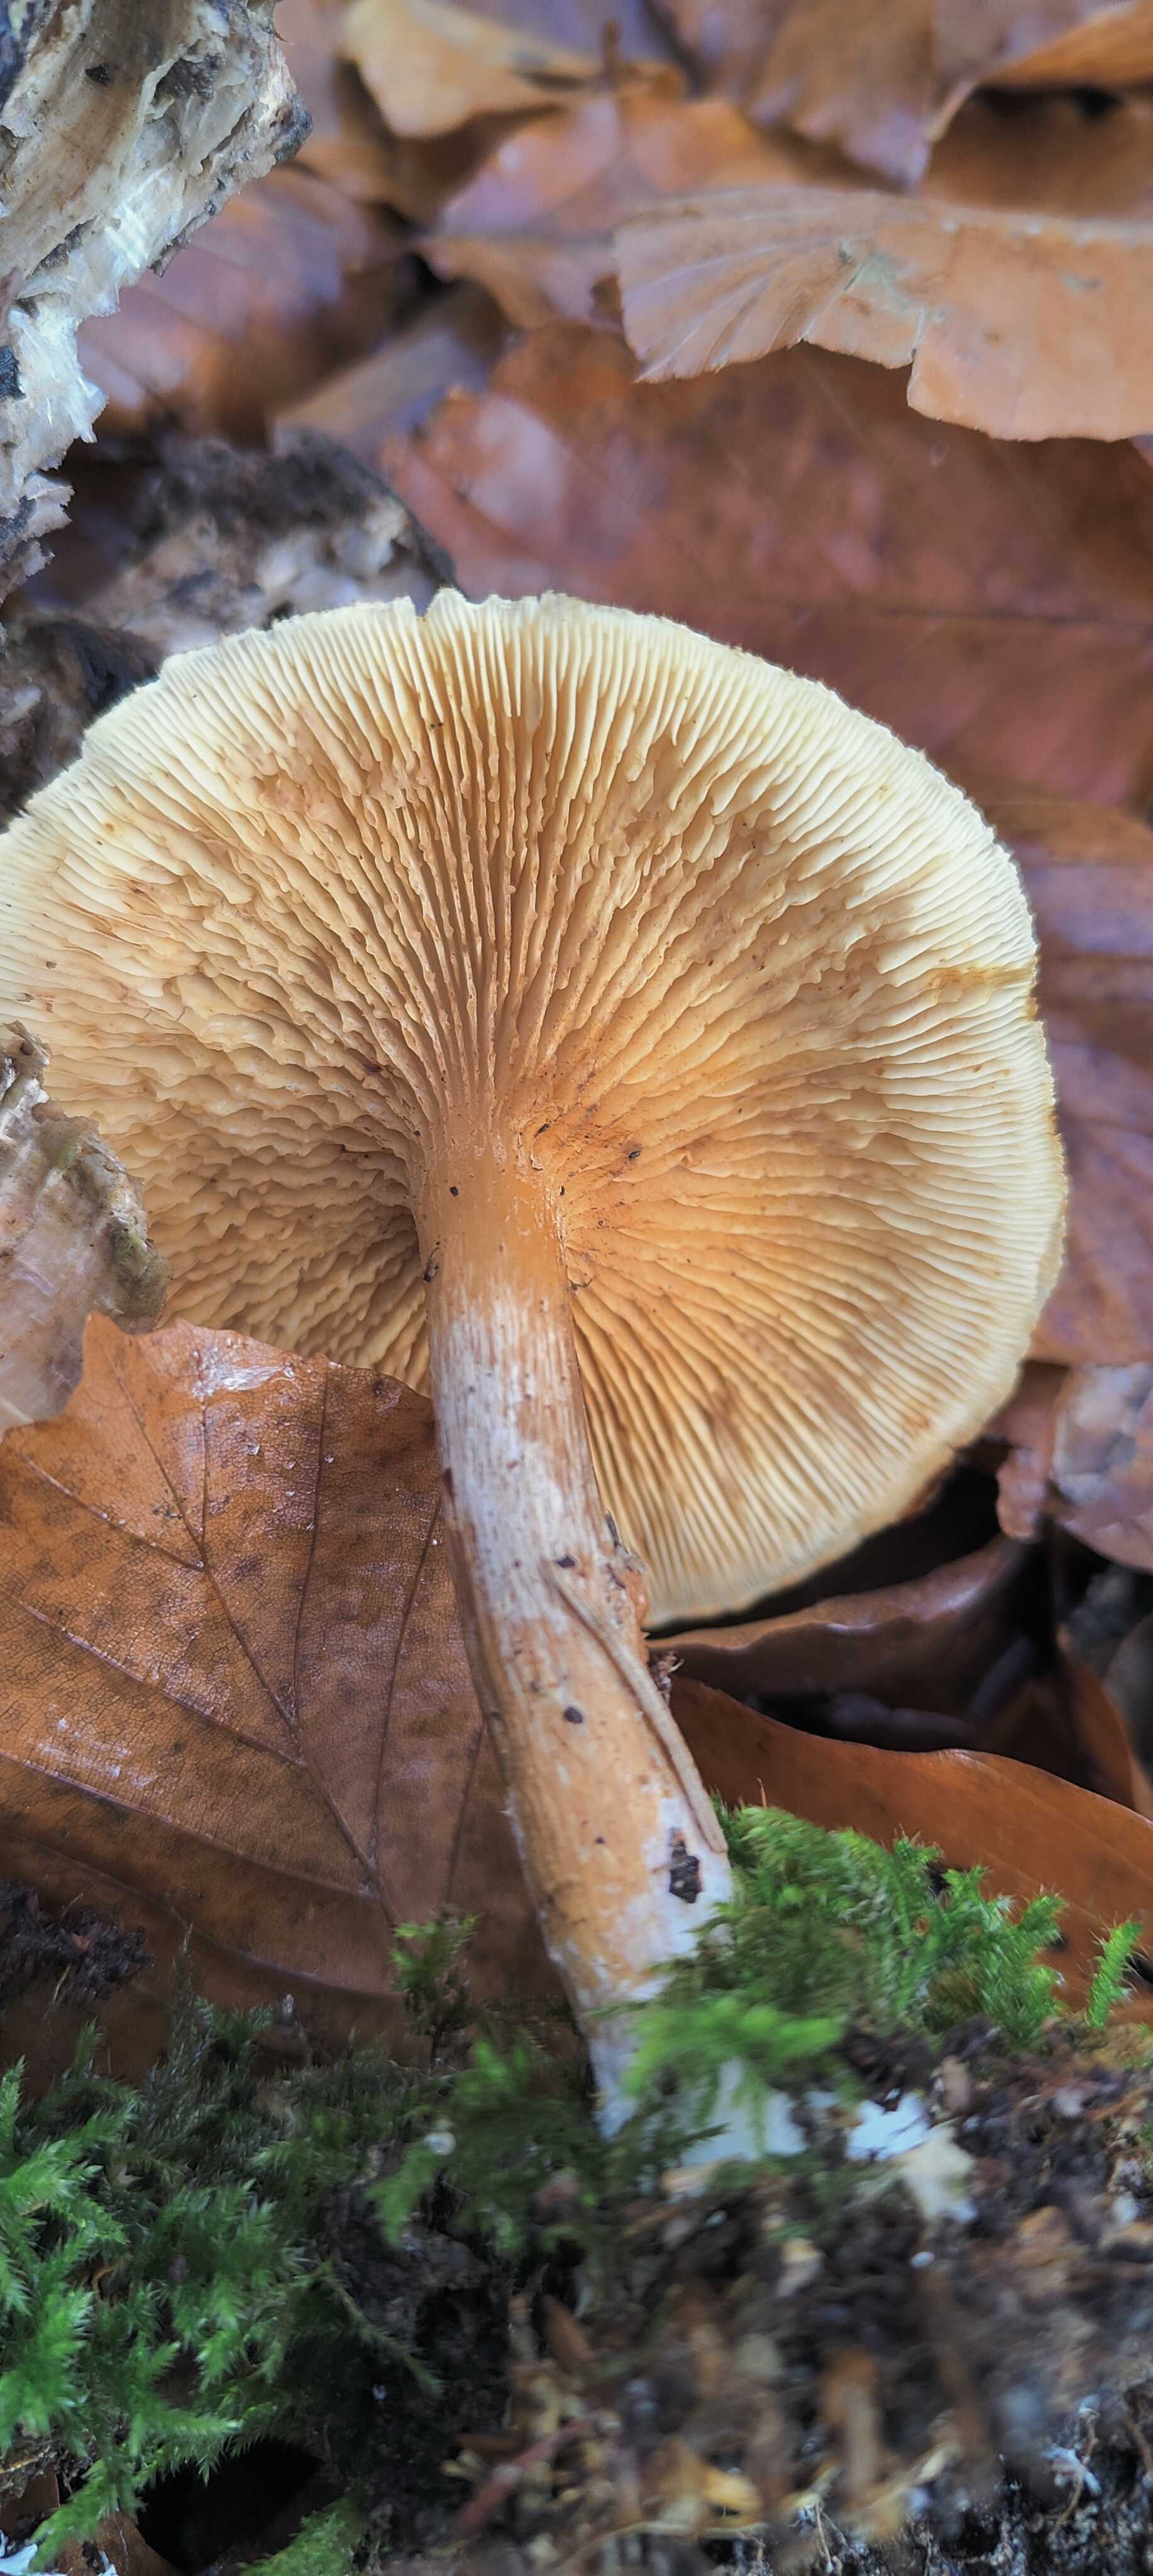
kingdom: Fungi
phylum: Basidiomycota
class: Agaricomycetes
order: Agaricales
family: Hymenogastraceae
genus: Gymnopilus
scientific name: Gymnopilus penetrans
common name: plettet flammehat
